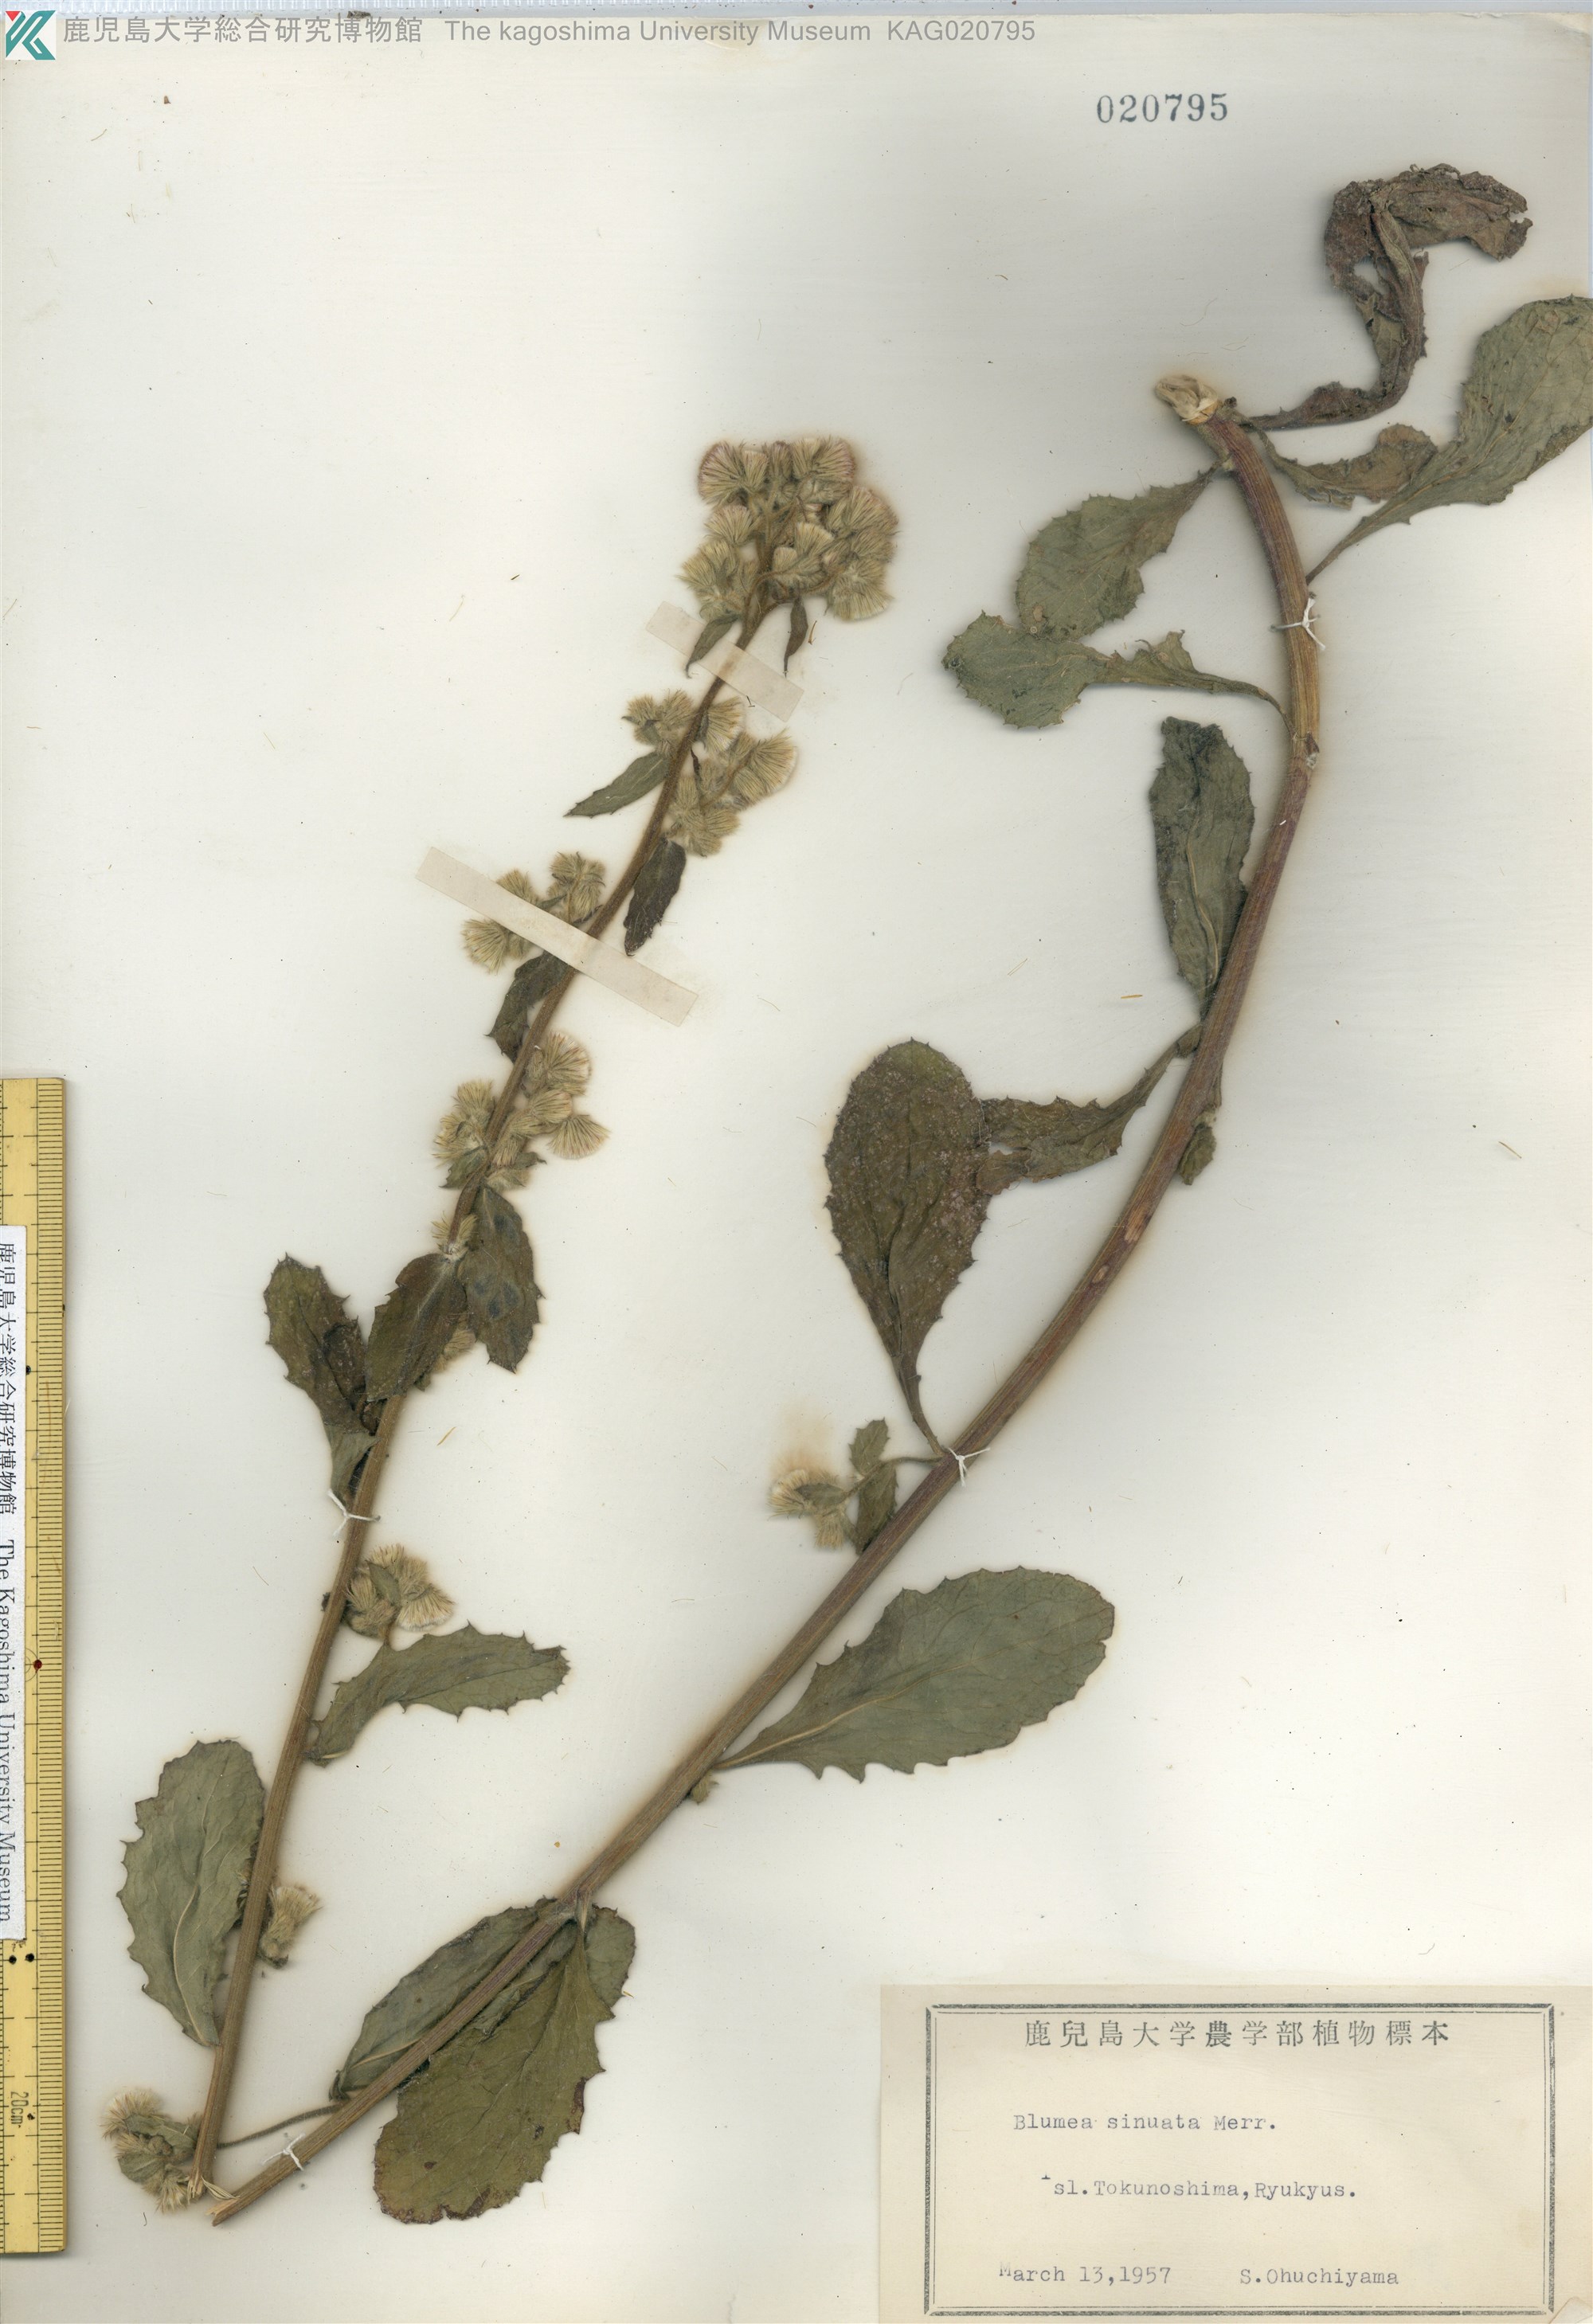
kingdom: Plantae
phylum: Tracheophyta
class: Magnoliopsida
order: Asterales
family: Asteraceae
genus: Blumea
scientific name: Blumea lacera
